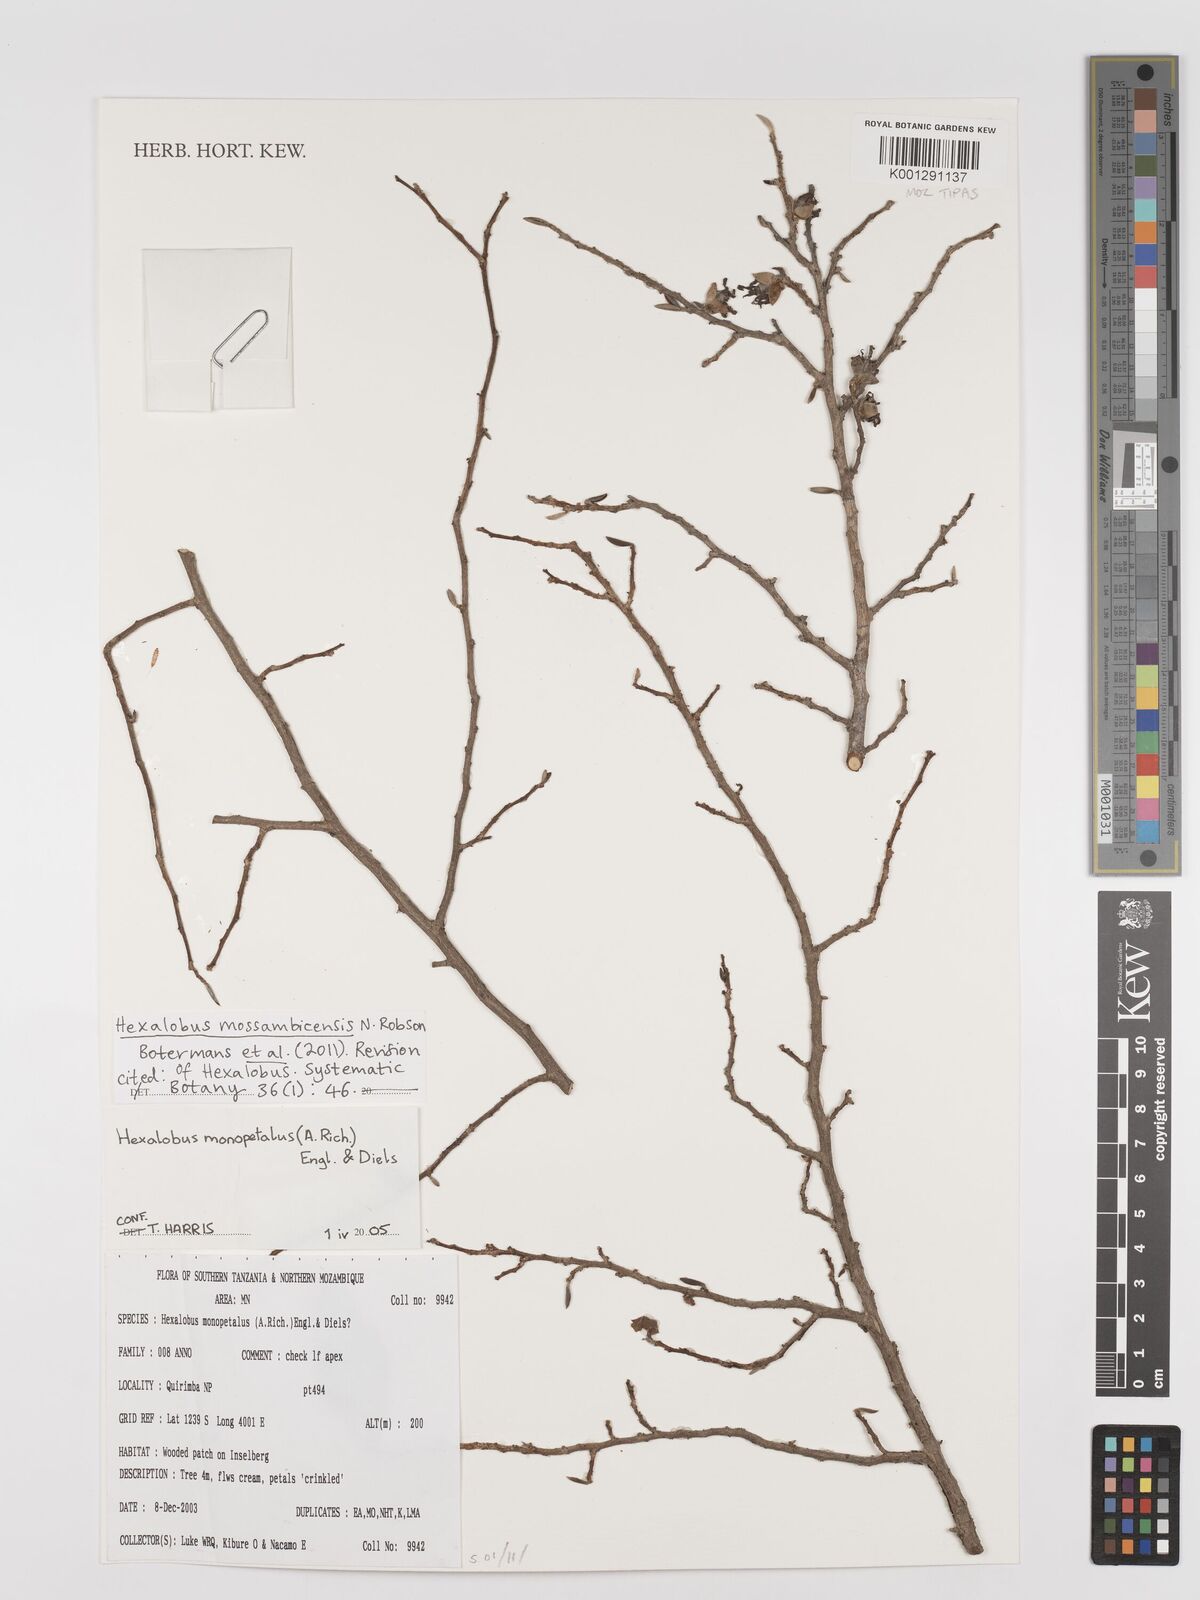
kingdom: Plantae
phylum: Tracheophyta
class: Magnoliopsida
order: Magnoliales
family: Annonaceae
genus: Hexalobus
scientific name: Hexalobus mossambicensis
